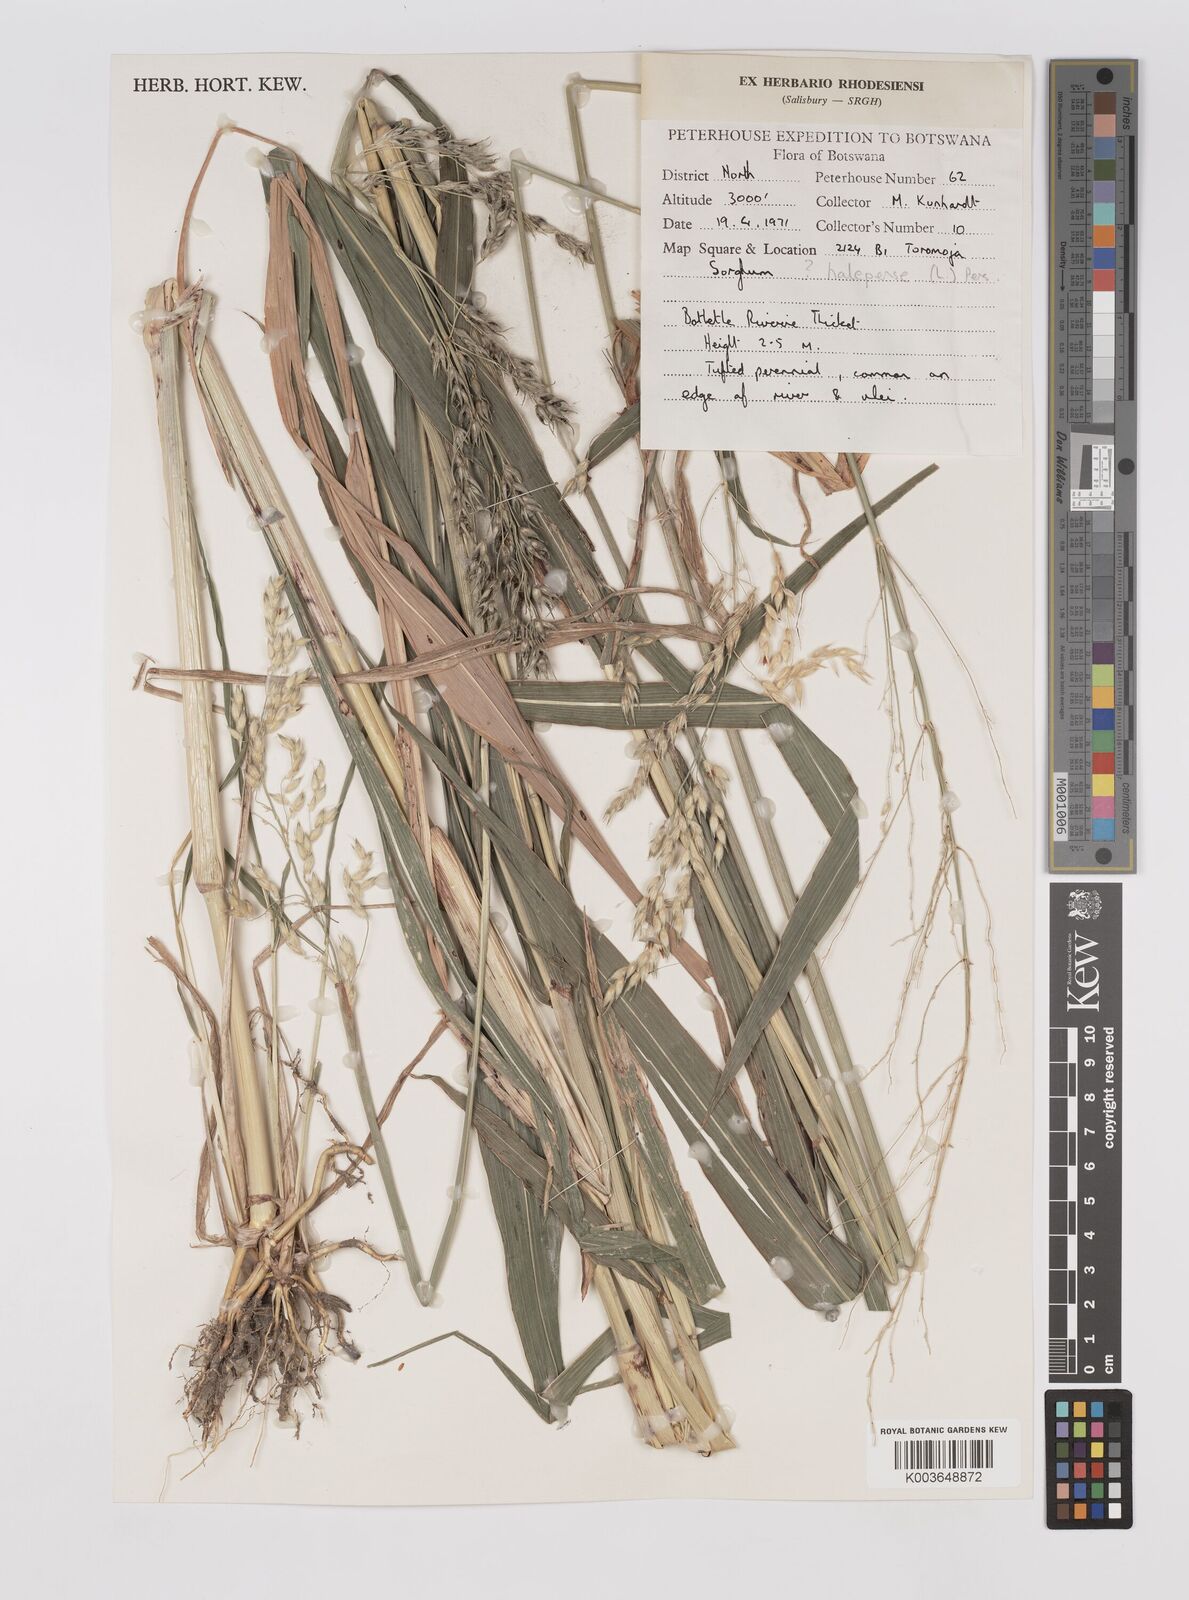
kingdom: Plantae
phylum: Tracheophyta
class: Liliopsida
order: Poales
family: Poaceae
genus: Sorghum
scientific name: Sorghum arundinaceum
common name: Sorghum
